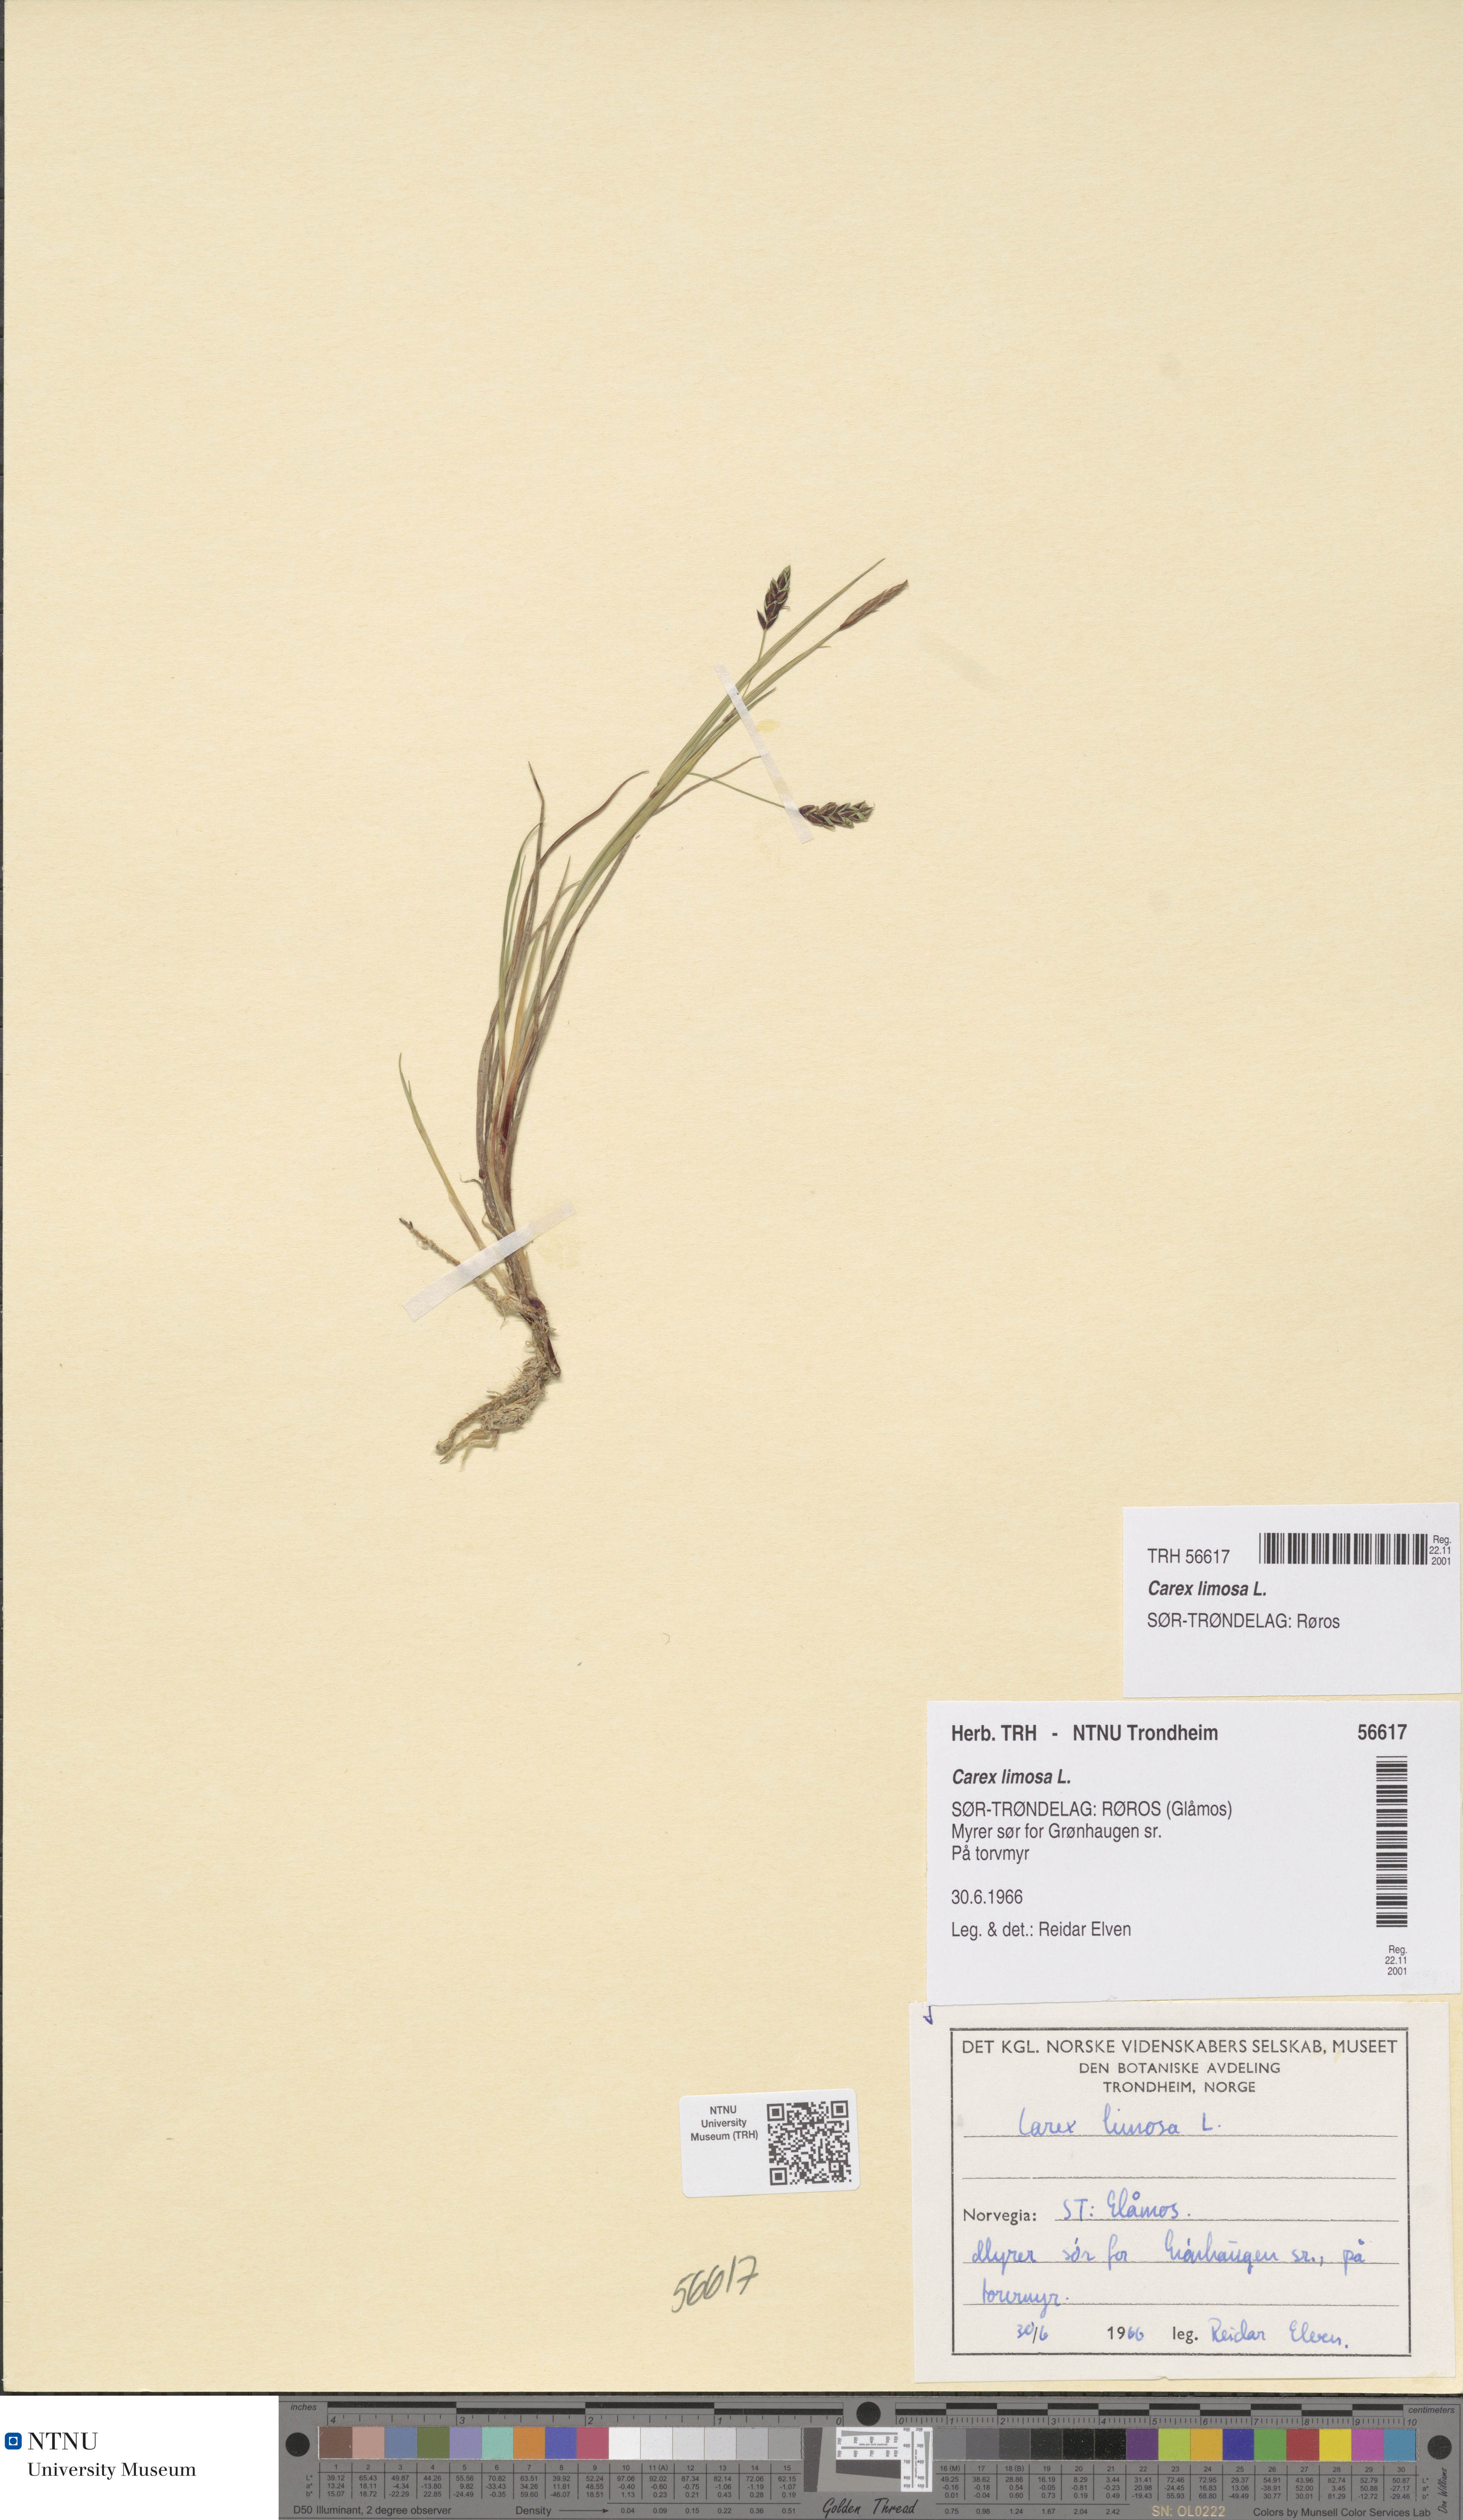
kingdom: Plantae
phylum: Tracheophyta
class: Liliopsida
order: Poales
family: Cyperaceae
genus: Carex
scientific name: Carex limosa
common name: Bog sedge
